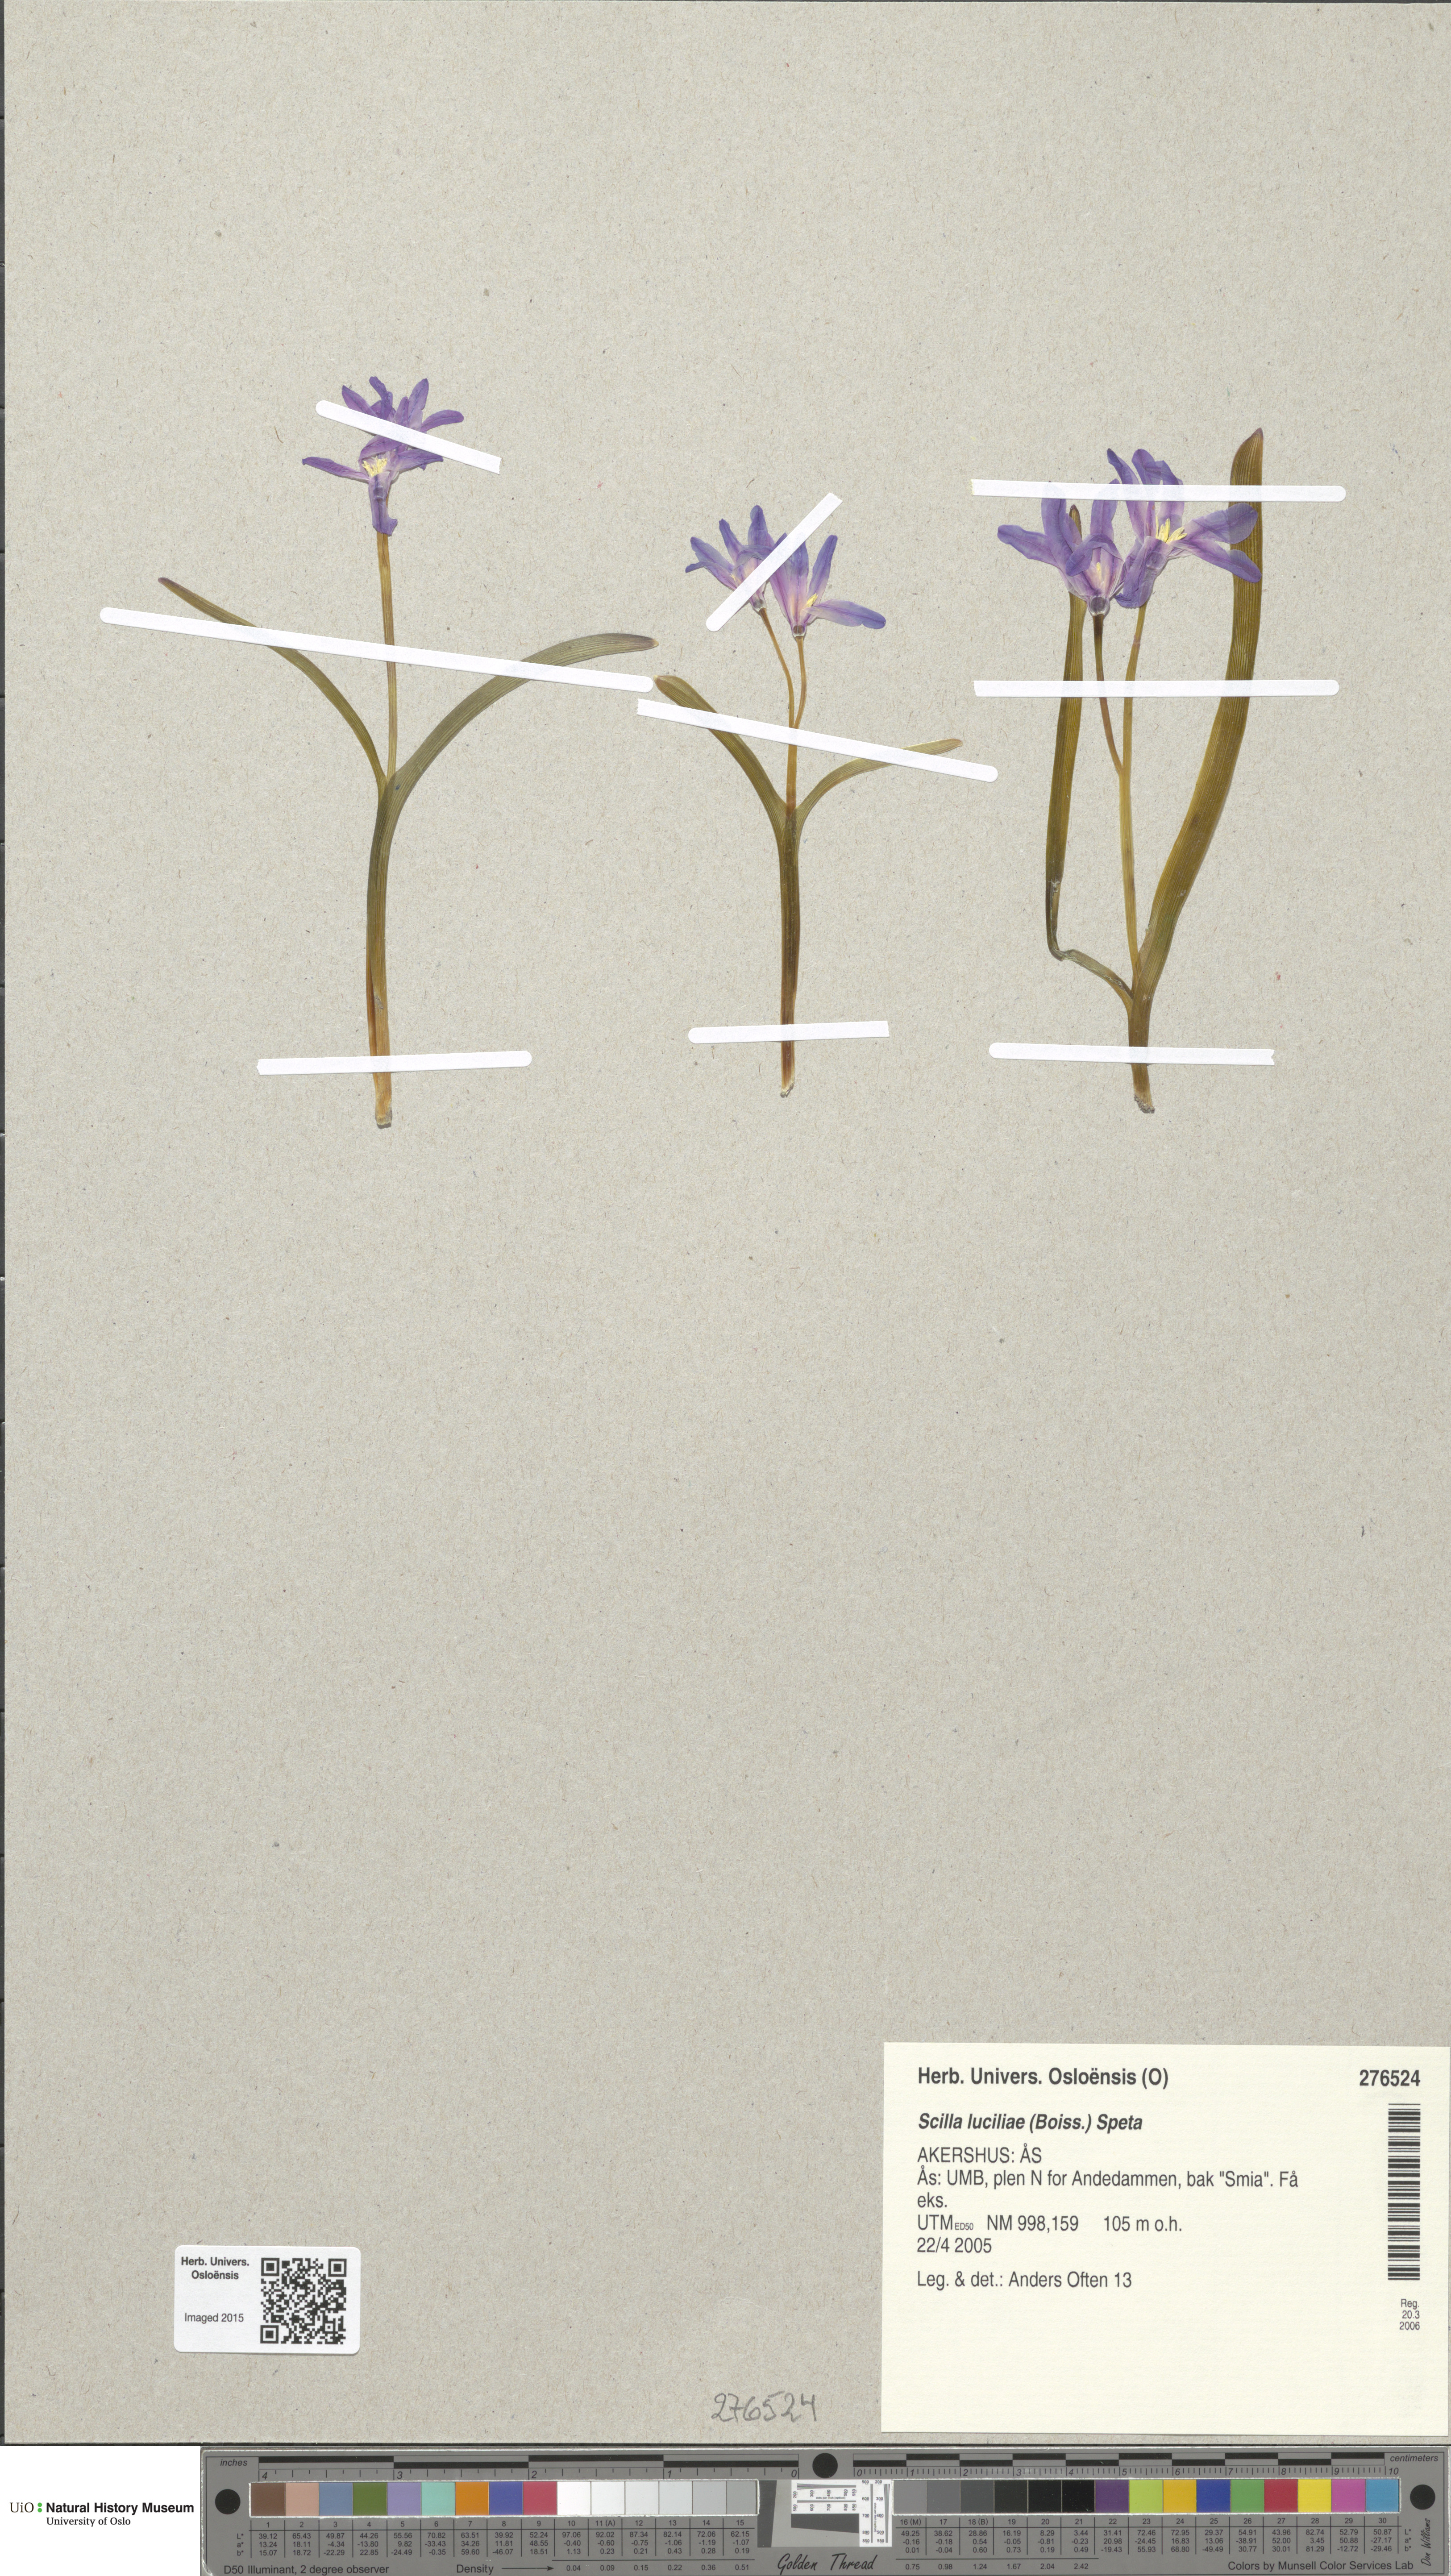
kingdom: Plantae
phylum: Tracheophyta
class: Liliopsida
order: Asparagales
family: Asparagaceae
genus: Scilla
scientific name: Scilla luciliae
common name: Boissier's glory-of-the-snow
